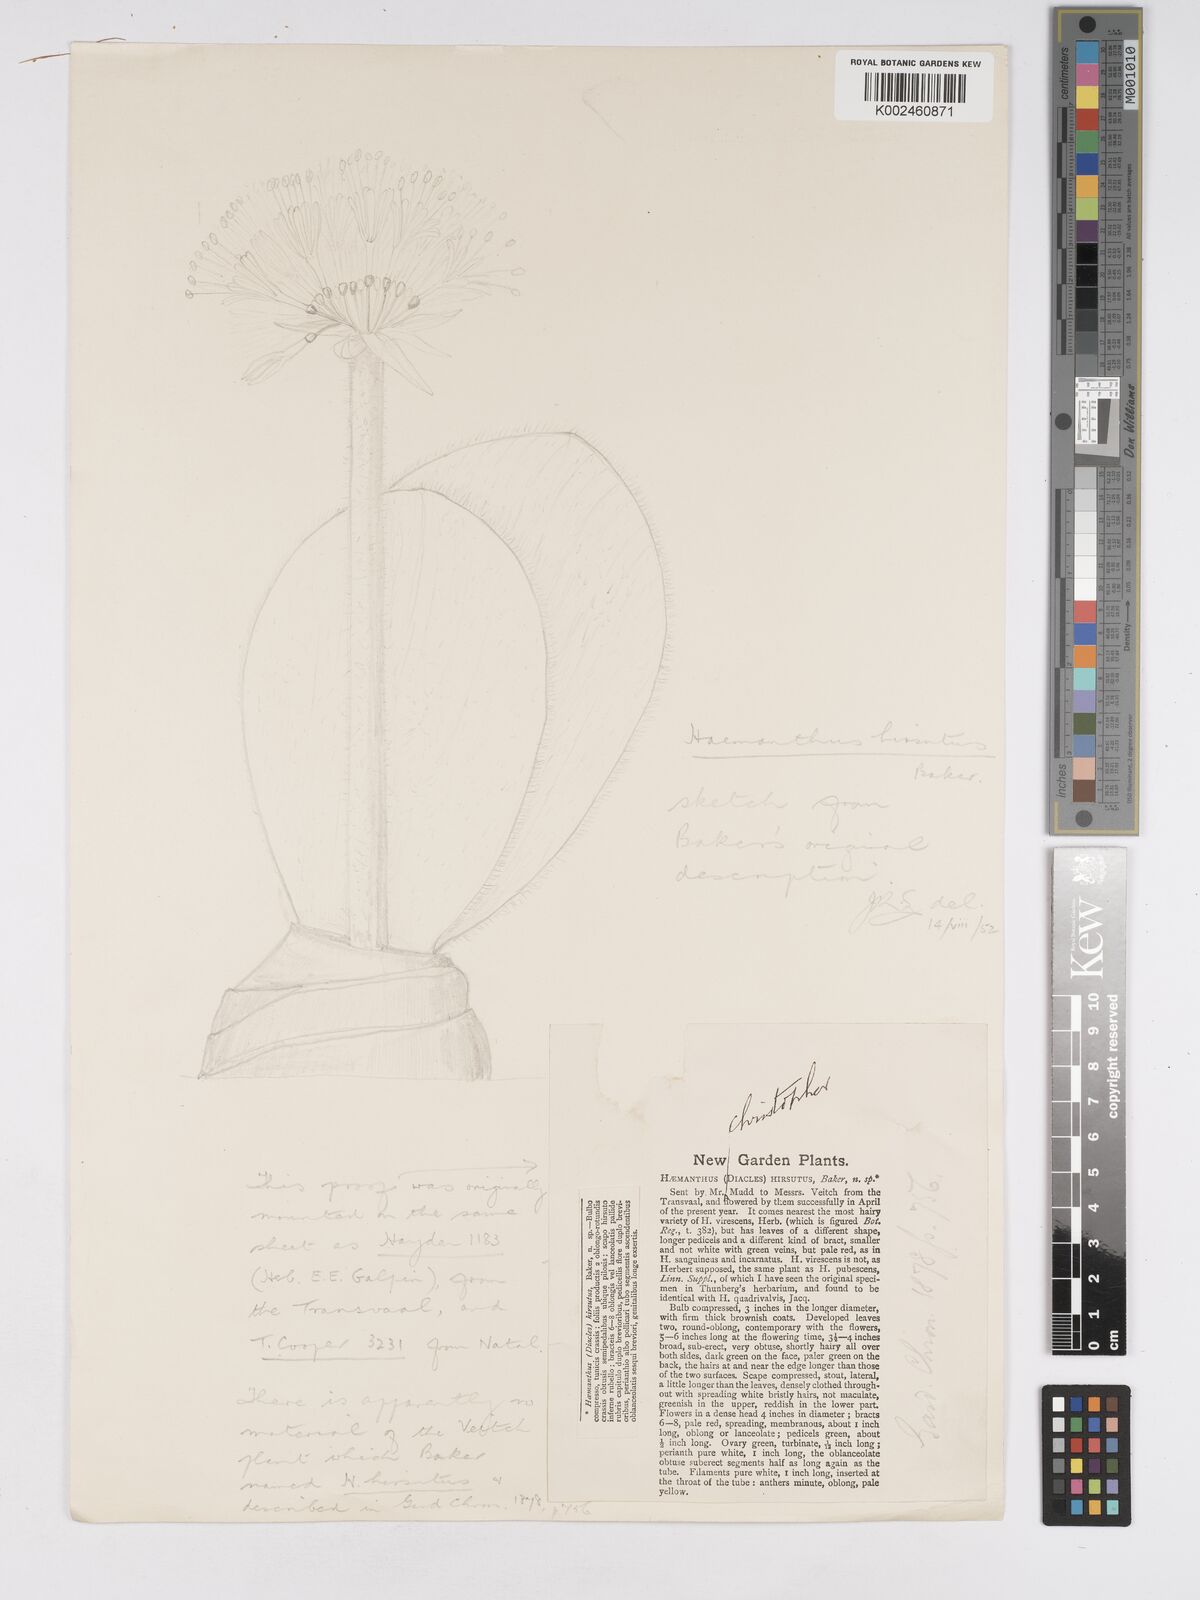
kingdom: Plantae
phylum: Tracheophyta
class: Liliopsida
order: Asparagales
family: Amaryllidaceae
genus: Haemanthus
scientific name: Haemanthus carneus
